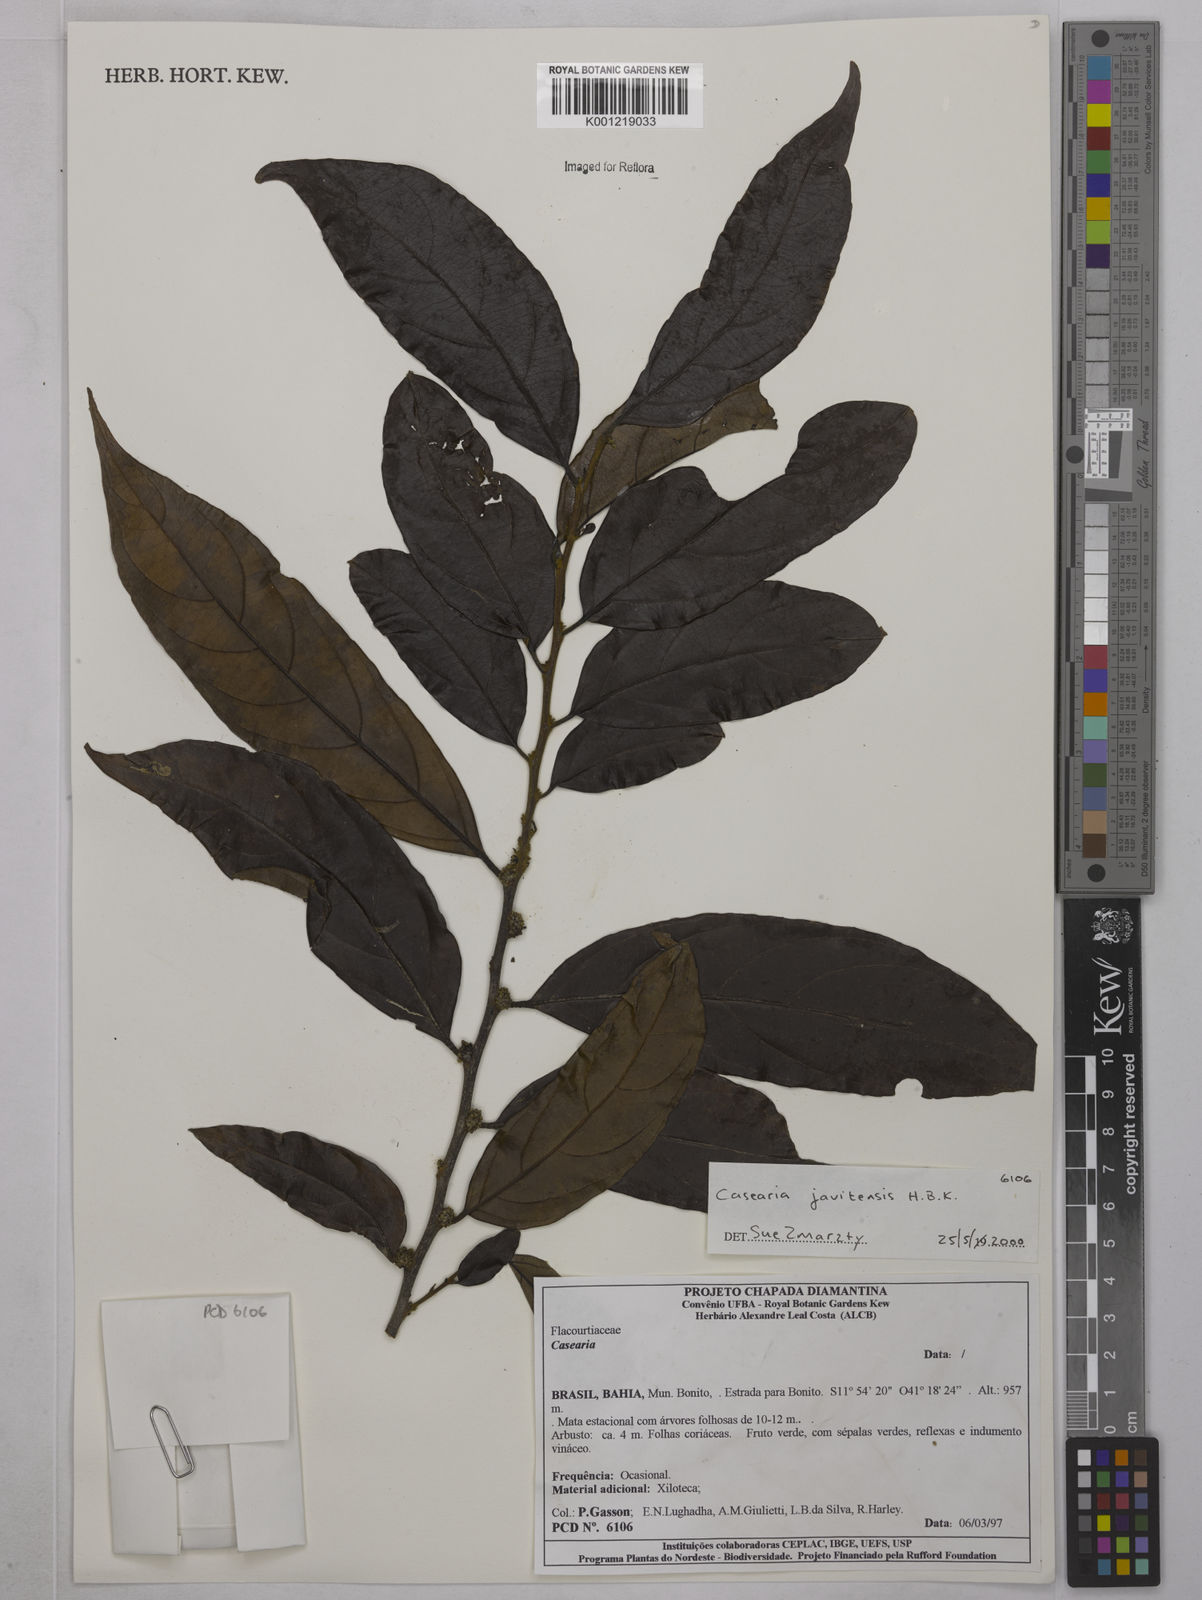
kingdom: Plantae
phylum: Tracheophyta
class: Magnoliopsida
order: Malpighiales
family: Salicaceae
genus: Piparea
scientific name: Piparea multiflora
